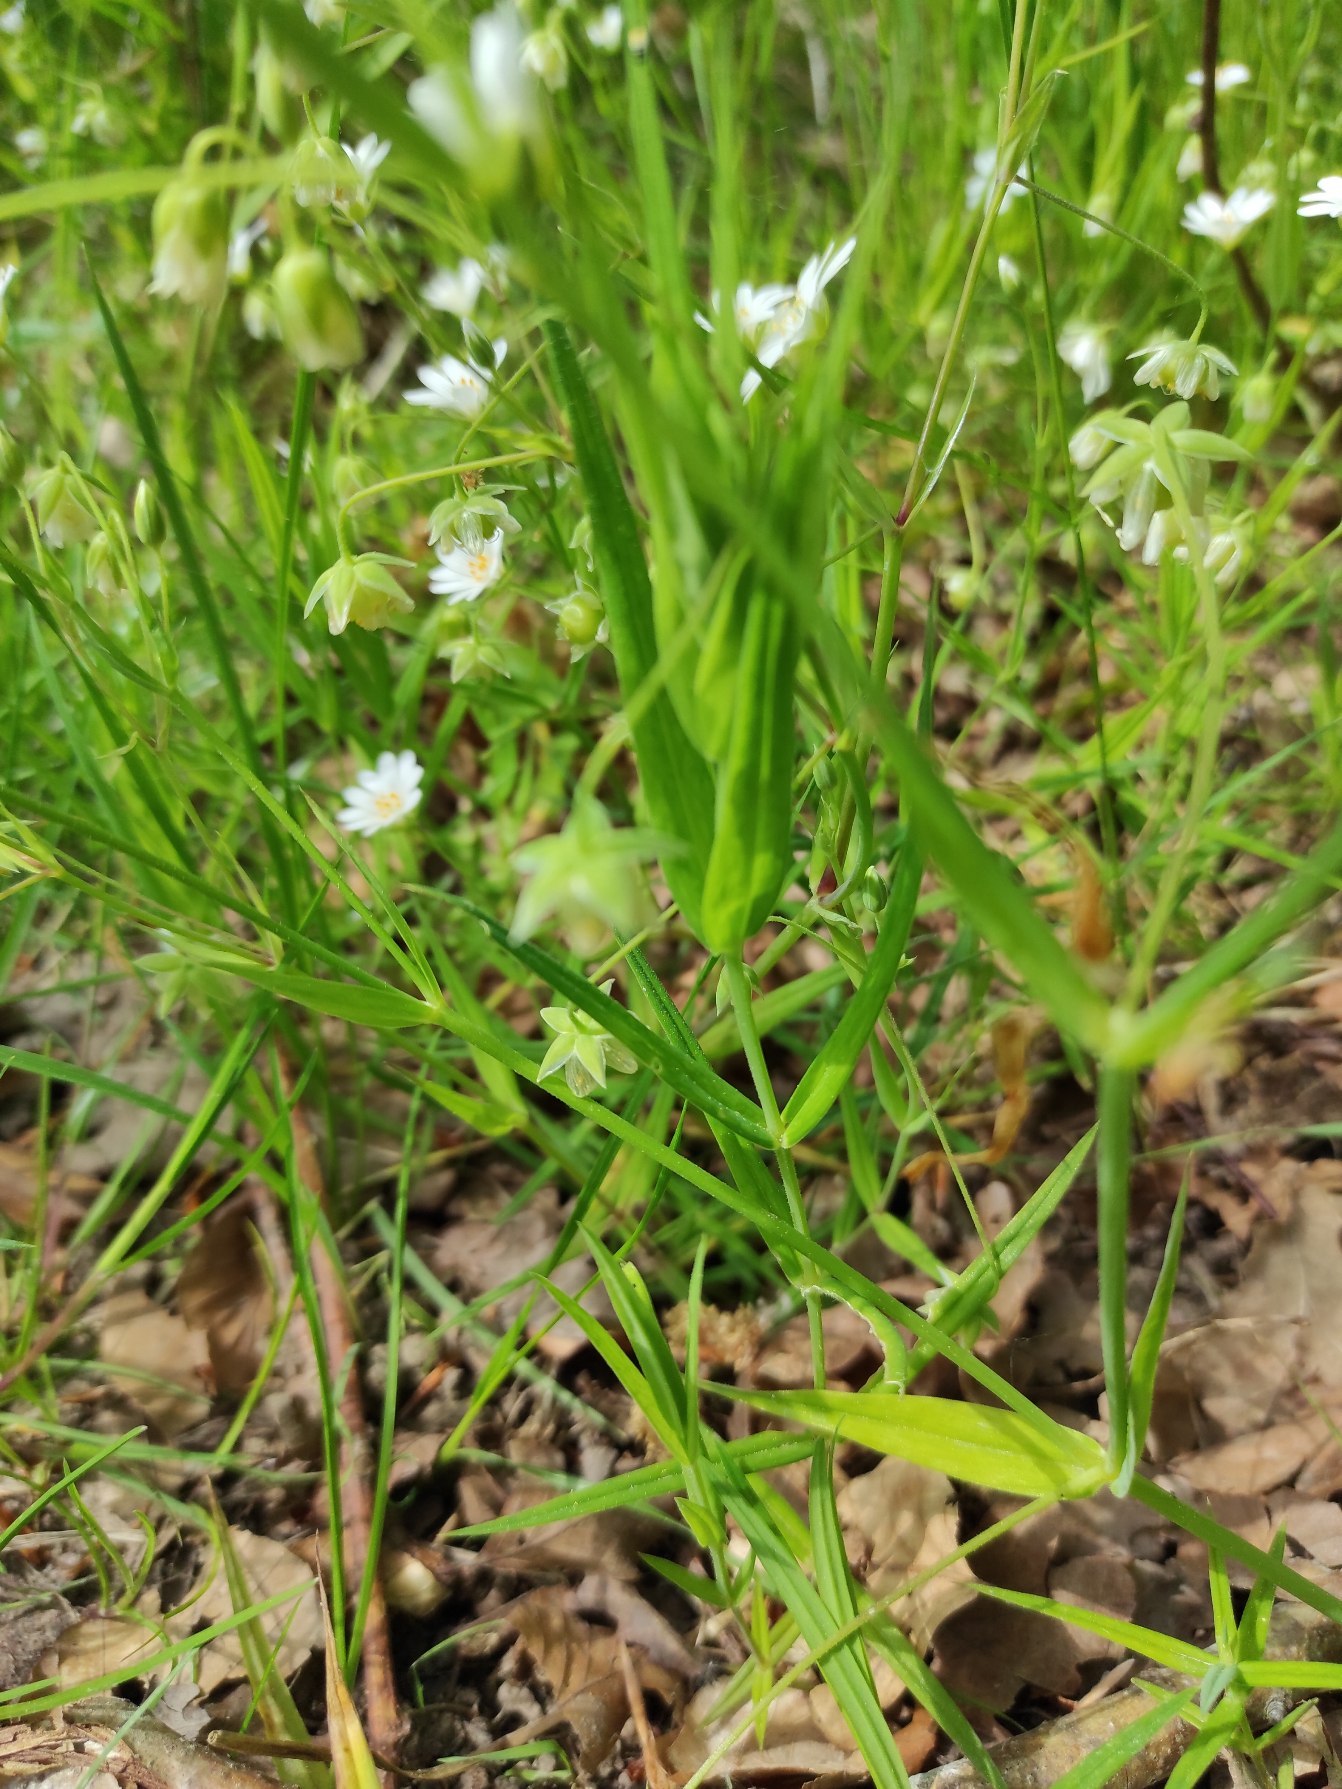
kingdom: Plantae
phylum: Tracheophyta
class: Magnoliopsida
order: Caryophyllales
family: Caryophyllaceae
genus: Rabelera
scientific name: Rabelera holostea
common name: Stor fladstjerne
